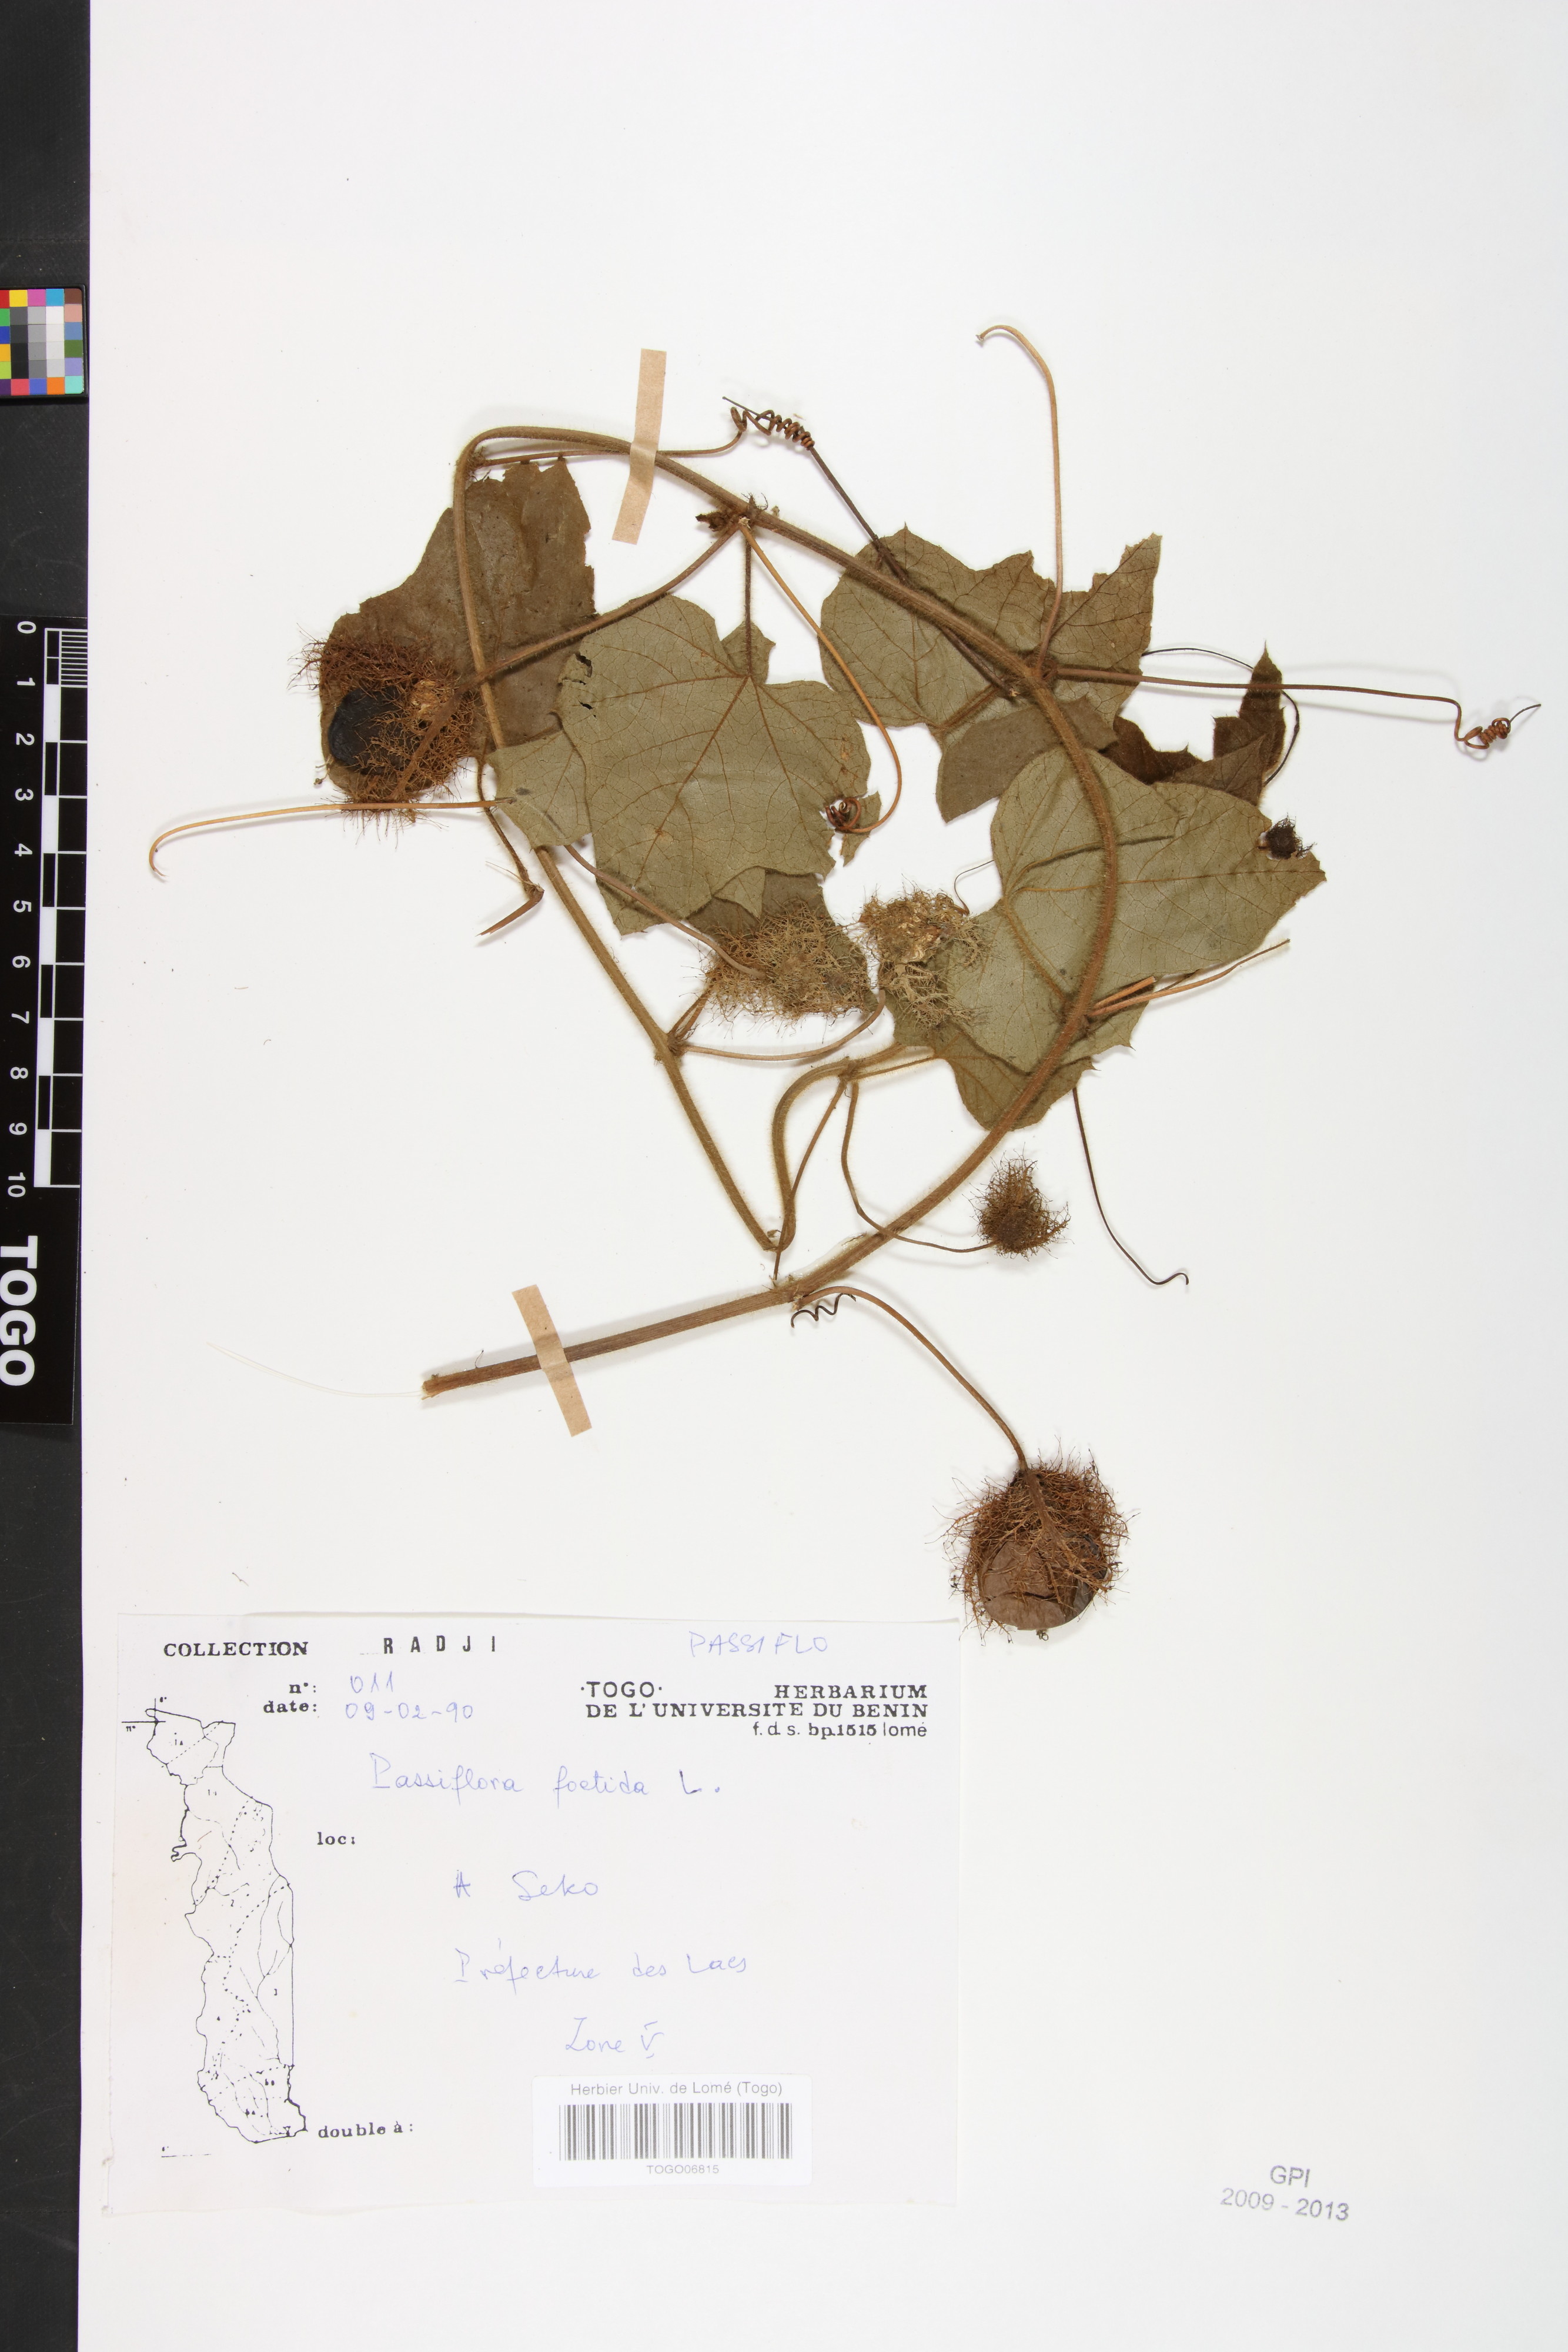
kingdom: Plantae
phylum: Tracheophyta
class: Magnoliopsida
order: Malpighiales
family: Passifloraceae
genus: Passiflora
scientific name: Passiflora foetida
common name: Fetid passionflower
